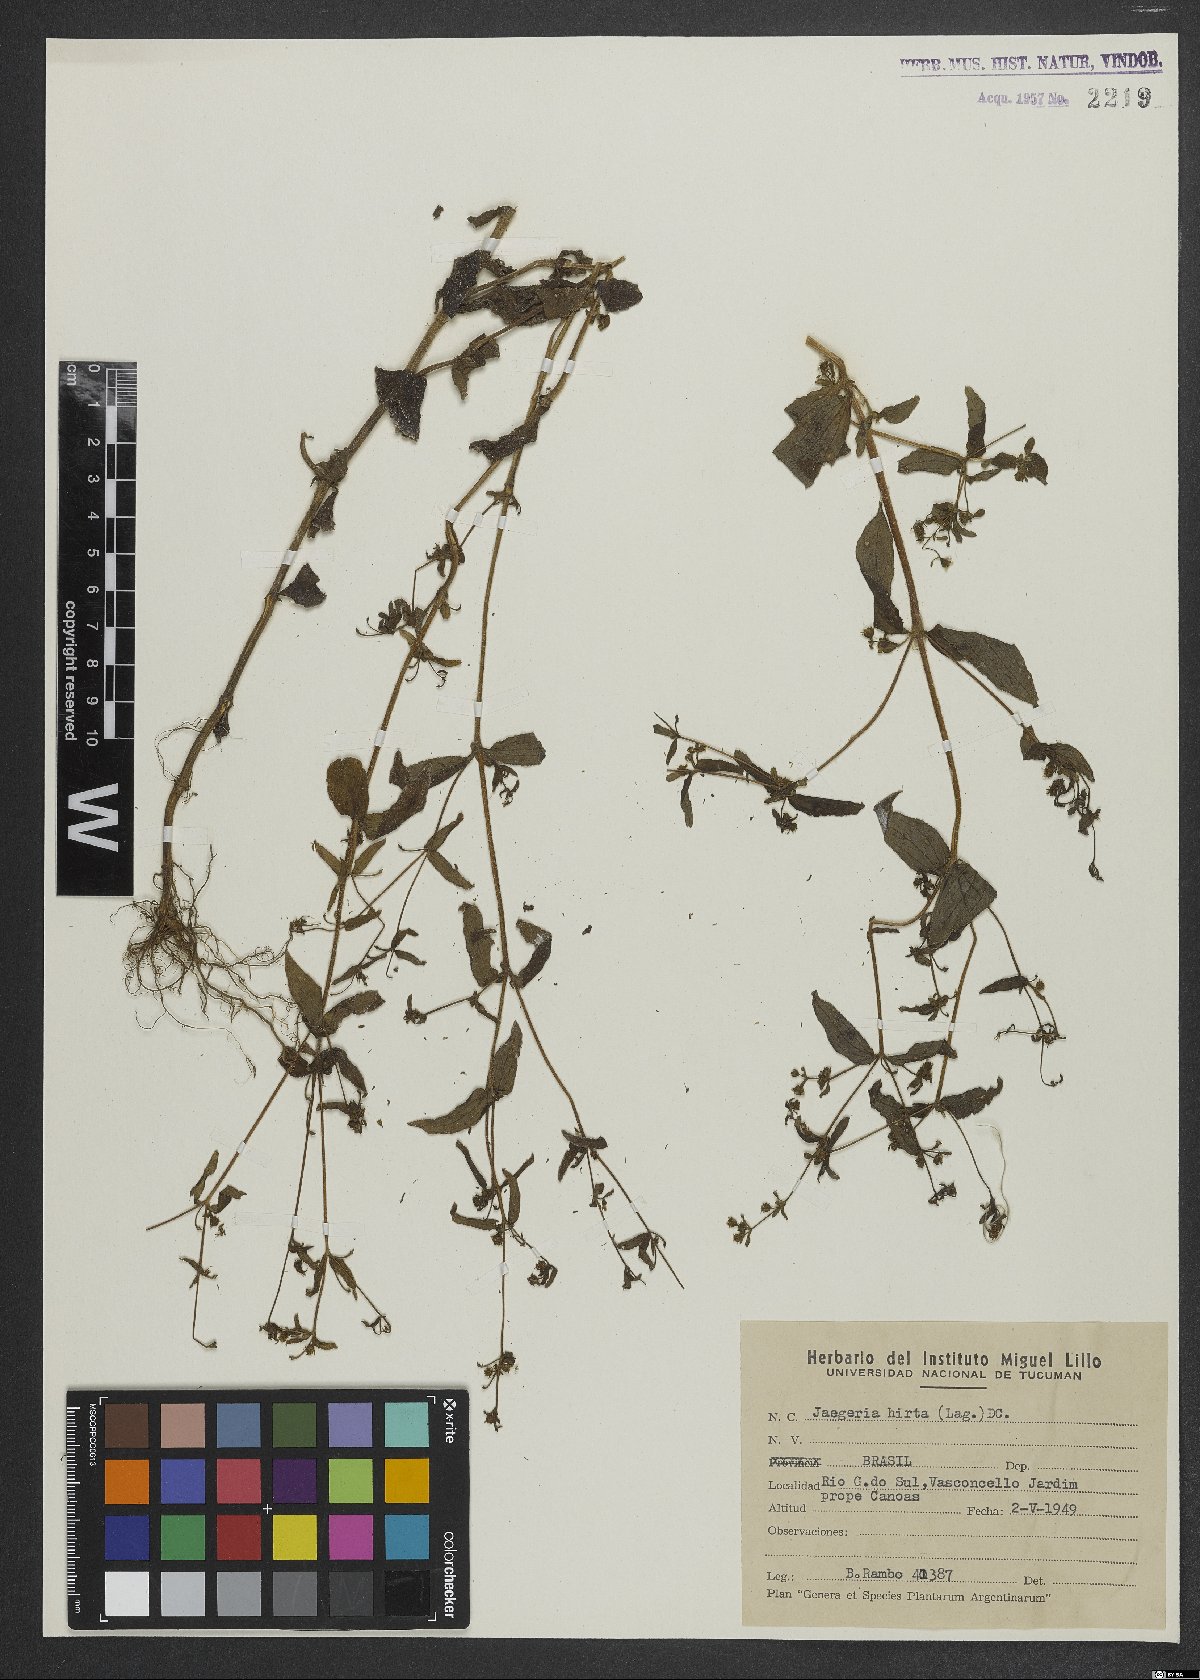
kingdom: Plantae
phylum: Tracheophyta
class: Magnoliopsida
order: Asterales
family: Asteraceae
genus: Jaegeria
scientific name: Jaegeria hirta
